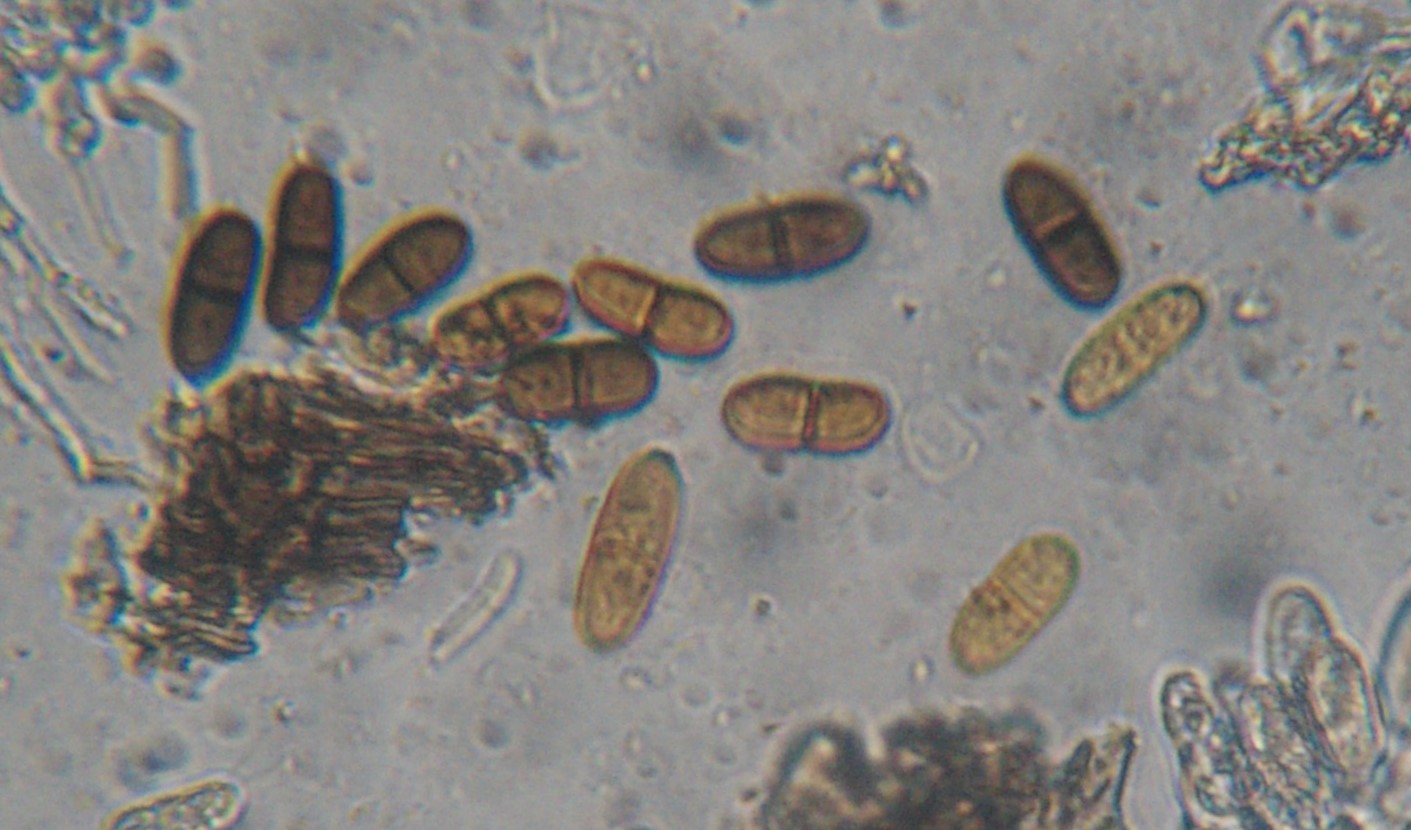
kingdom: Fungi
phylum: Ascomycota
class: Sordariomycetes
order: Diaporthales
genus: Botryodiplodia
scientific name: Botryodiplodia fraxini
